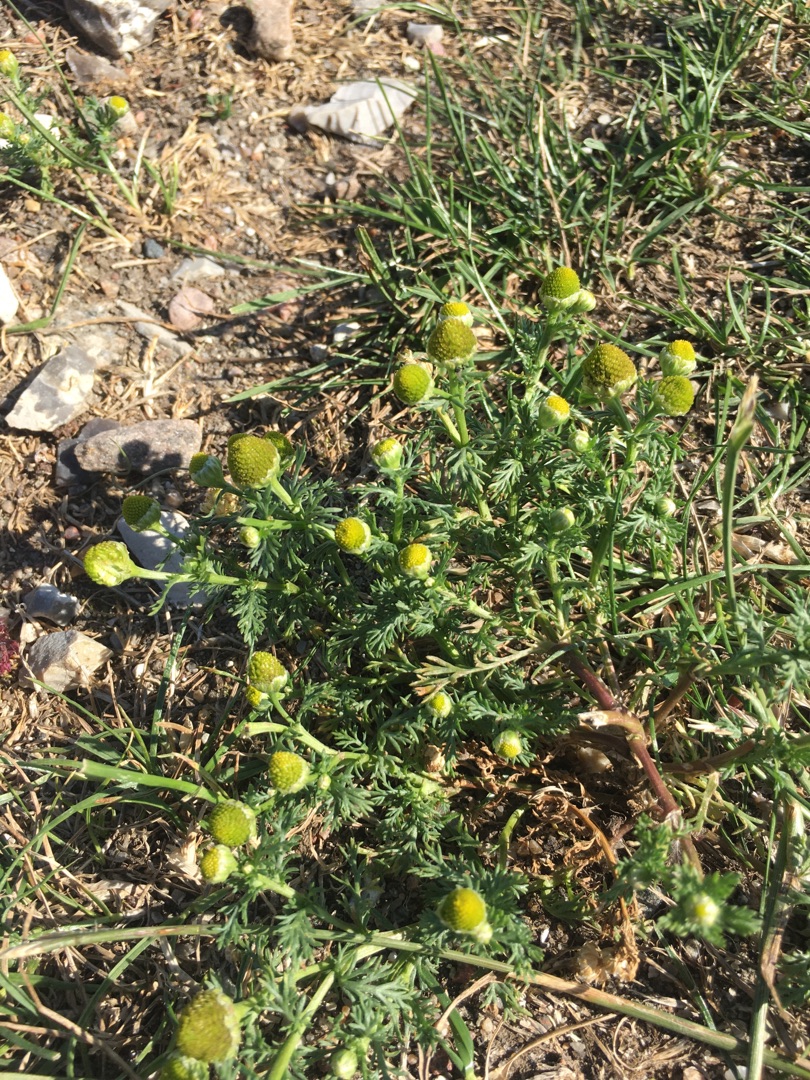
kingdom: Plantae
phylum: Tracheophyta
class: Magnoliopsida
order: Asterales
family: Asteraceae
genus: Matricaria
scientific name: Matricaria discoidea
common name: Skive-kamille
